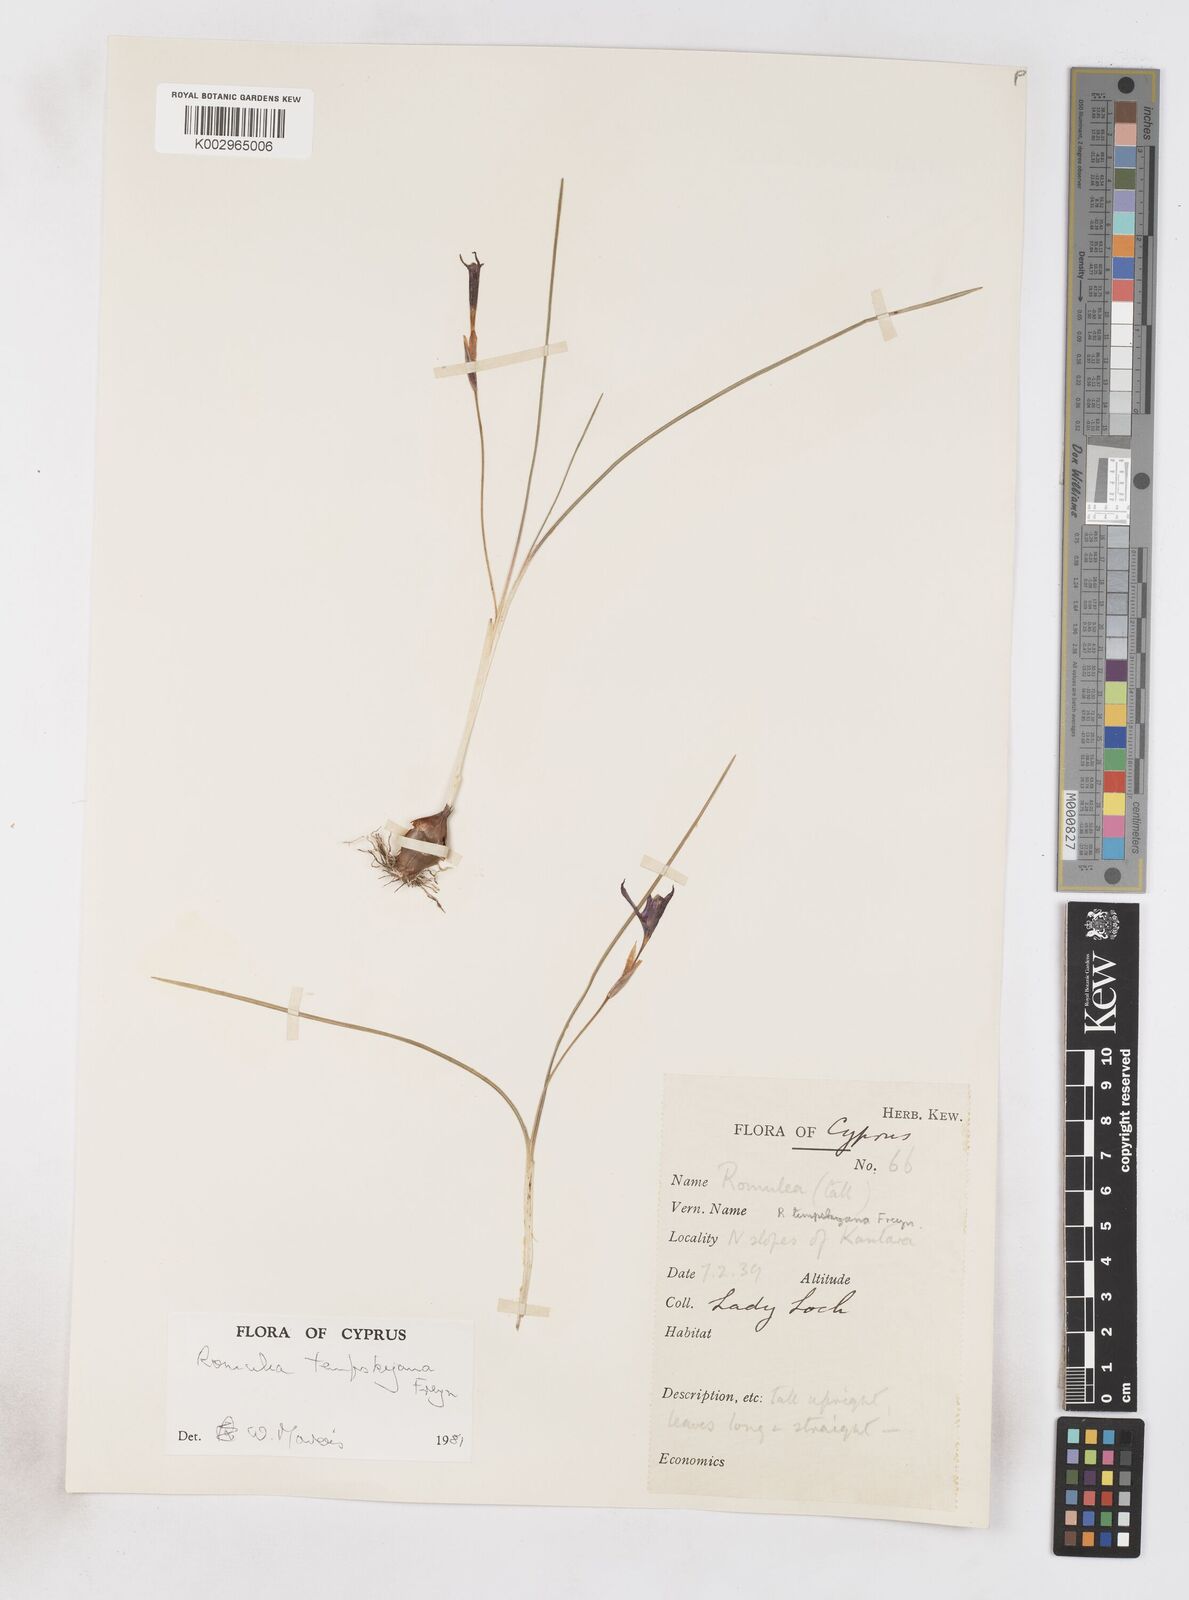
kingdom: Plantae
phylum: Tracheophyta
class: Liliopsida
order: Asparagales
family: Iridaceae
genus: Romulea
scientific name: Romulea tempskyana
